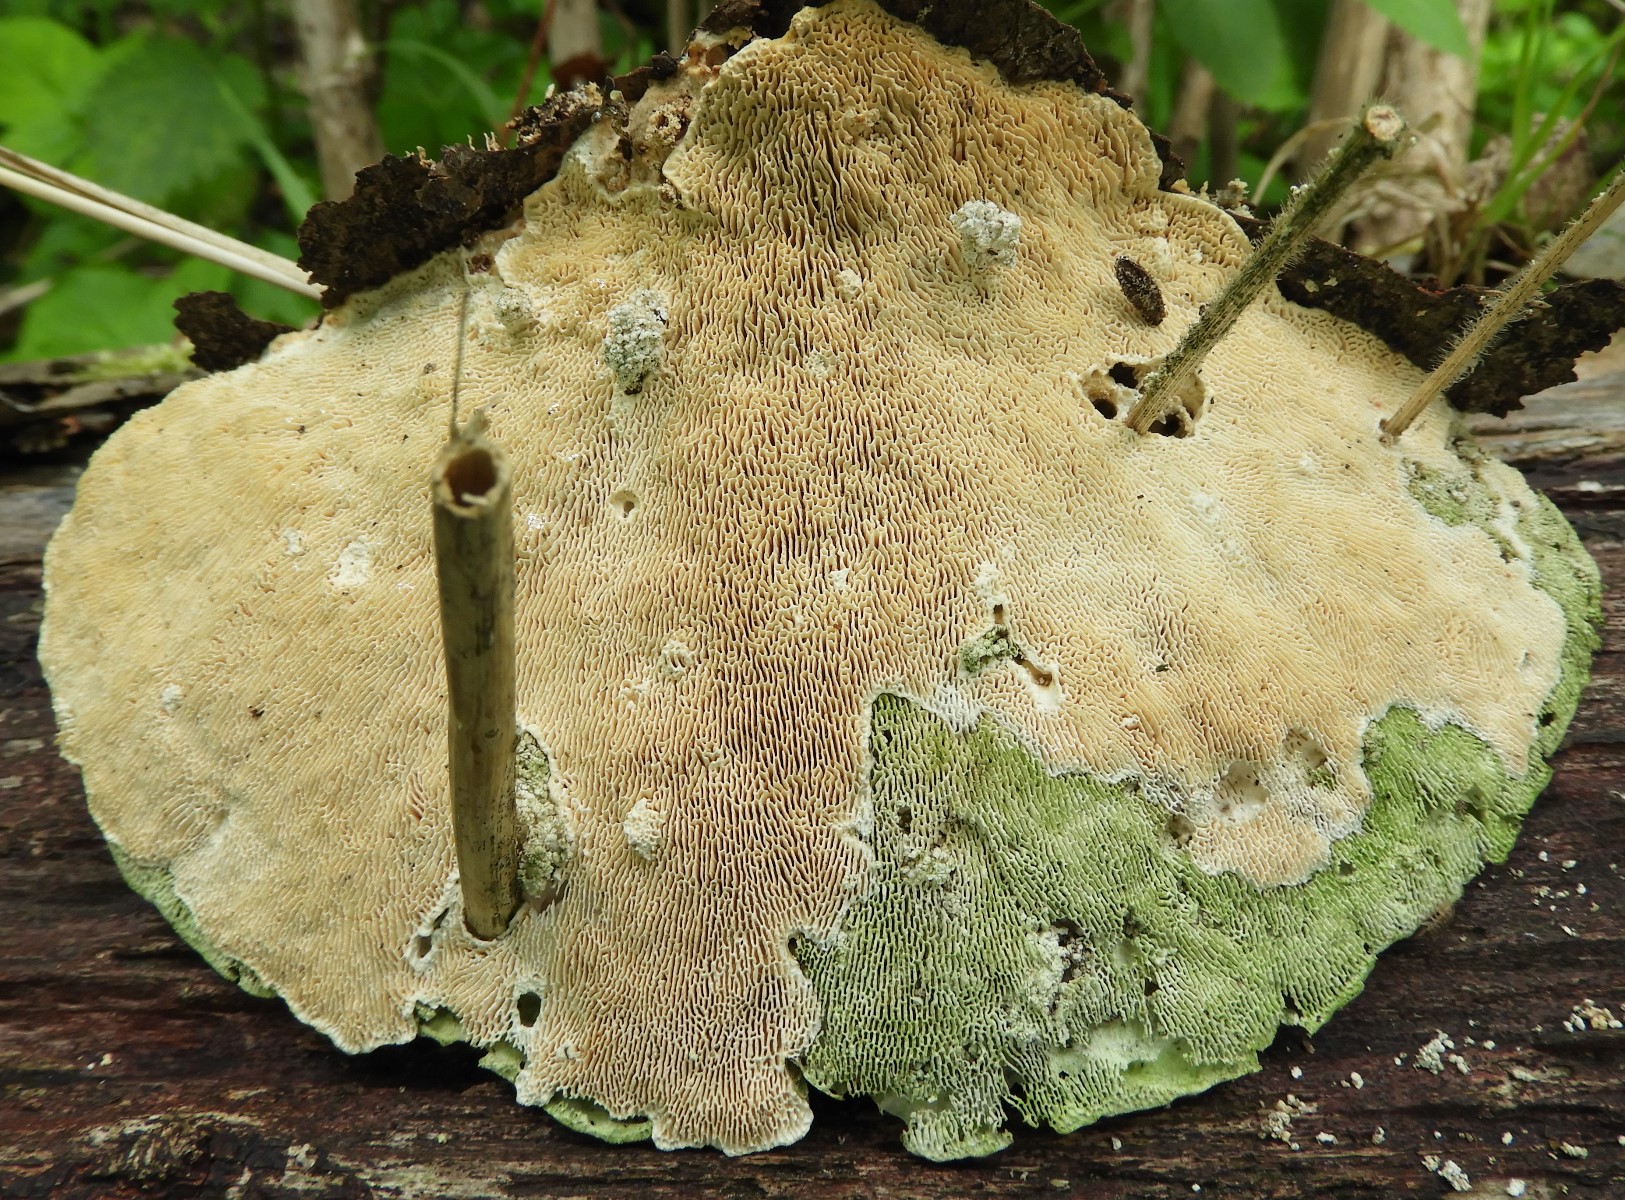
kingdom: Fungi
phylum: Basidiomycota
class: Agaricomycetes
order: Polyporales
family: Polyporaceae
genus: Trametes
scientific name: Trametes gibbosa
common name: puklet læderporesvamp
